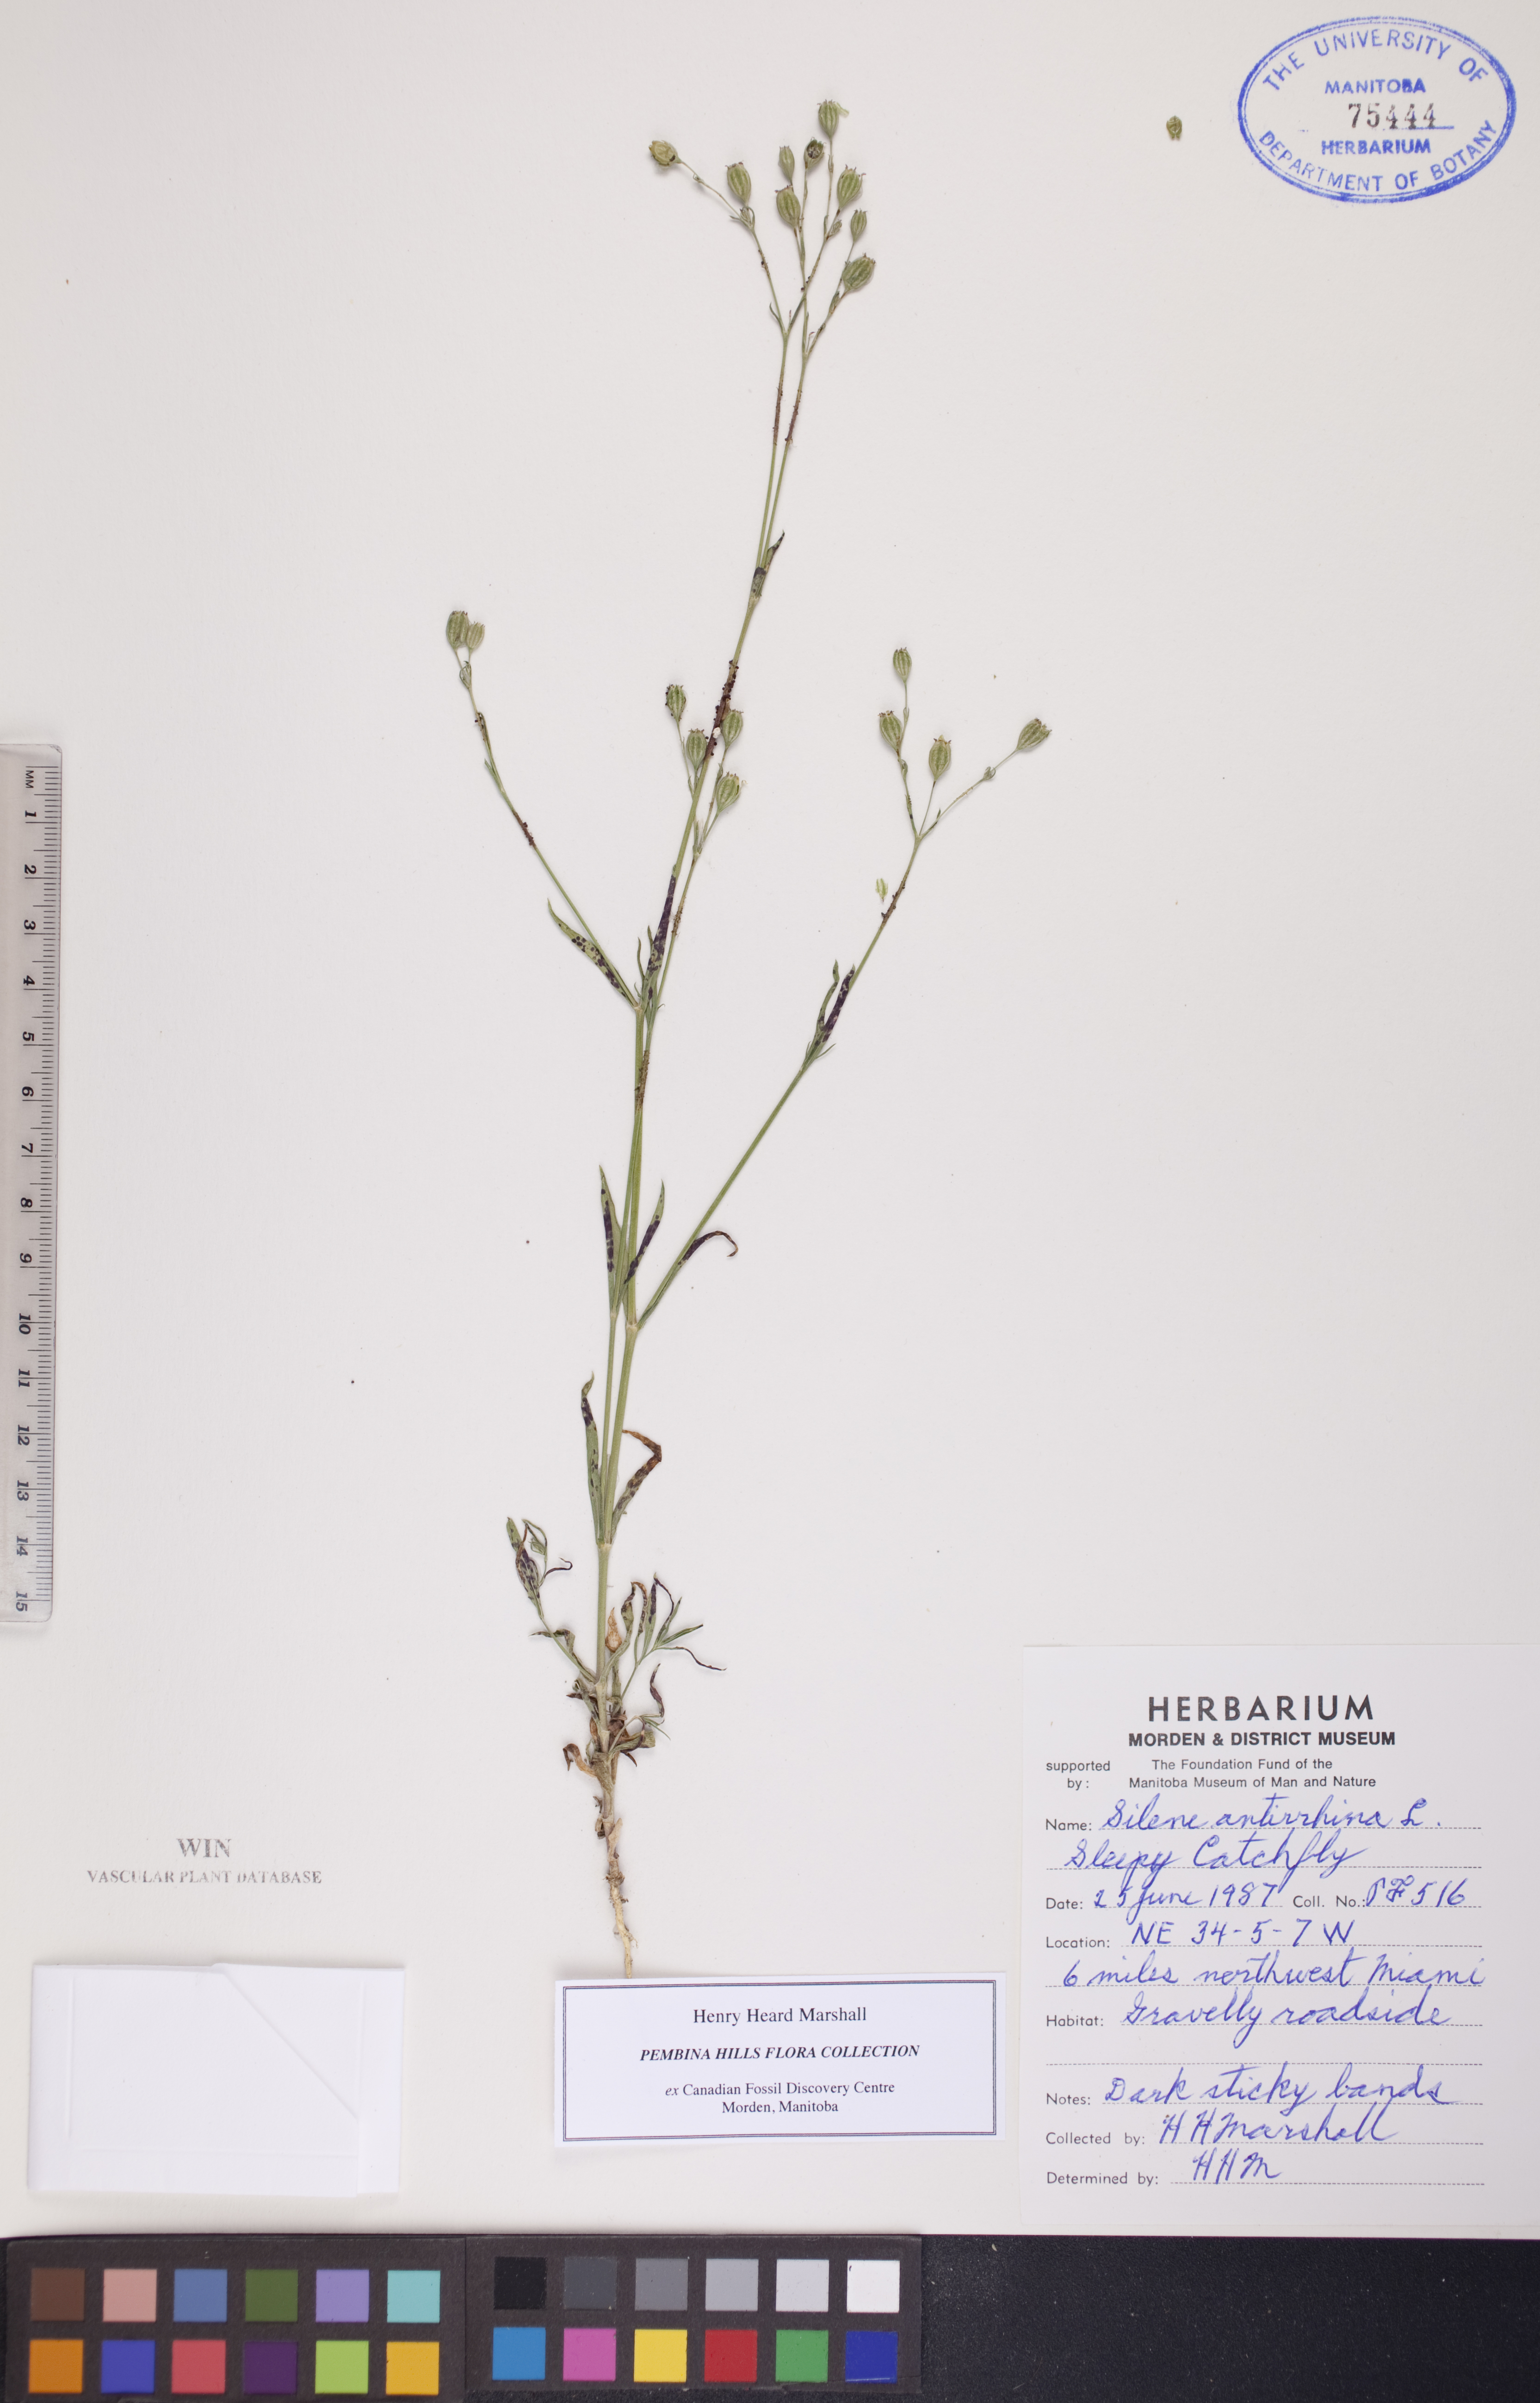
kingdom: Plantae
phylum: Tracheophyta
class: Magnoliopsida
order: Caryophyllales
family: Caryophyllaceae
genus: Silene
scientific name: Silene antirrhina
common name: Sleepy catchfly
